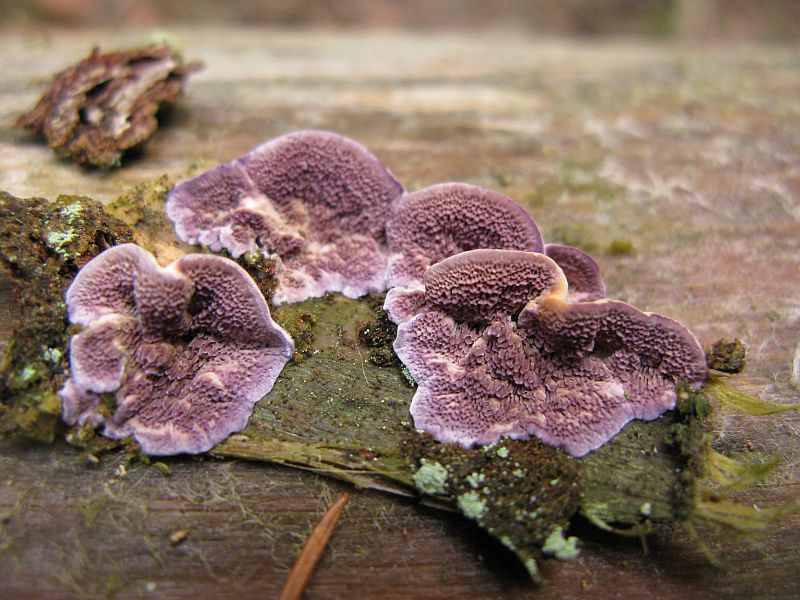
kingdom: Fungi
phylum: Basidiomycota
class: Agaricomycetes
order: Hymenochaetales
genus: Trichaptum
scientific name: Trichaptum fuscoviolaceum
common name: tandet violporesvamp
